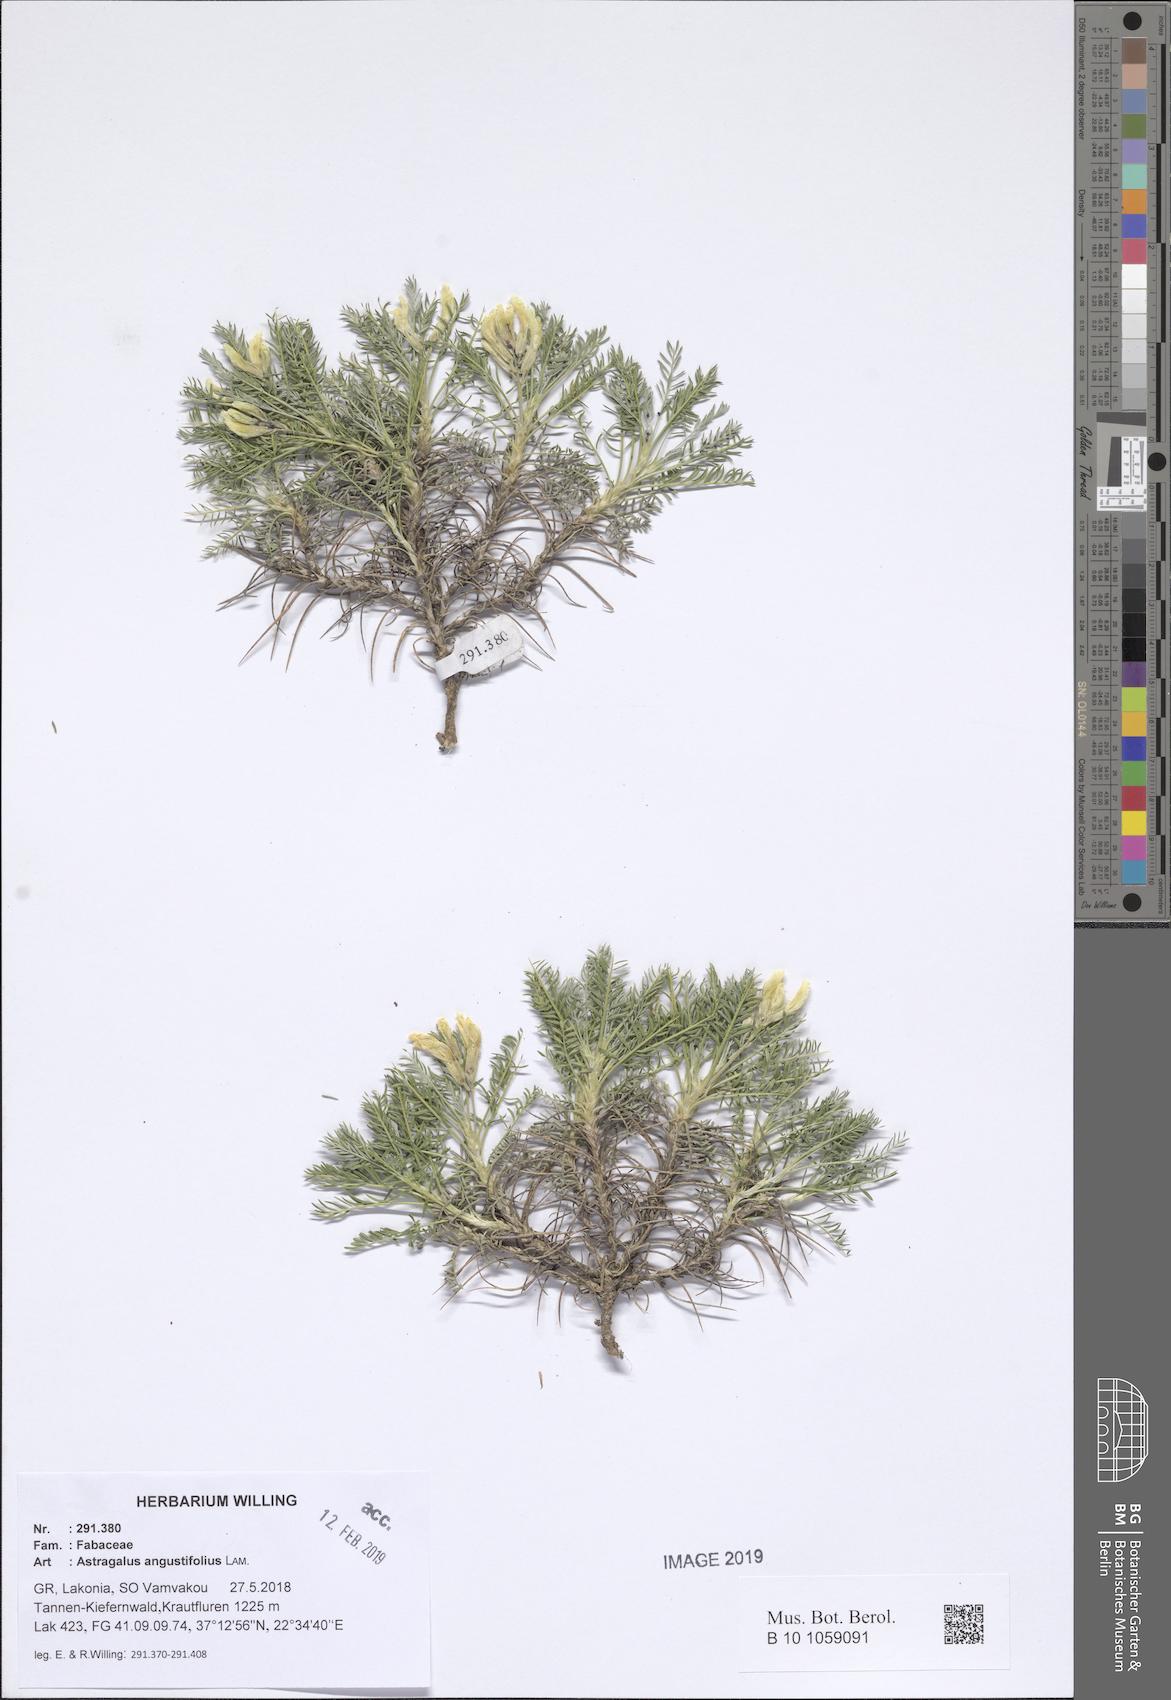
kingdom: Plantae
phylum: Tracheophyta
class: Magnoliopsida
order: Fabales
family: Fabaceae
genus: Astragalus
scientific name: Astragalus angustifolius
